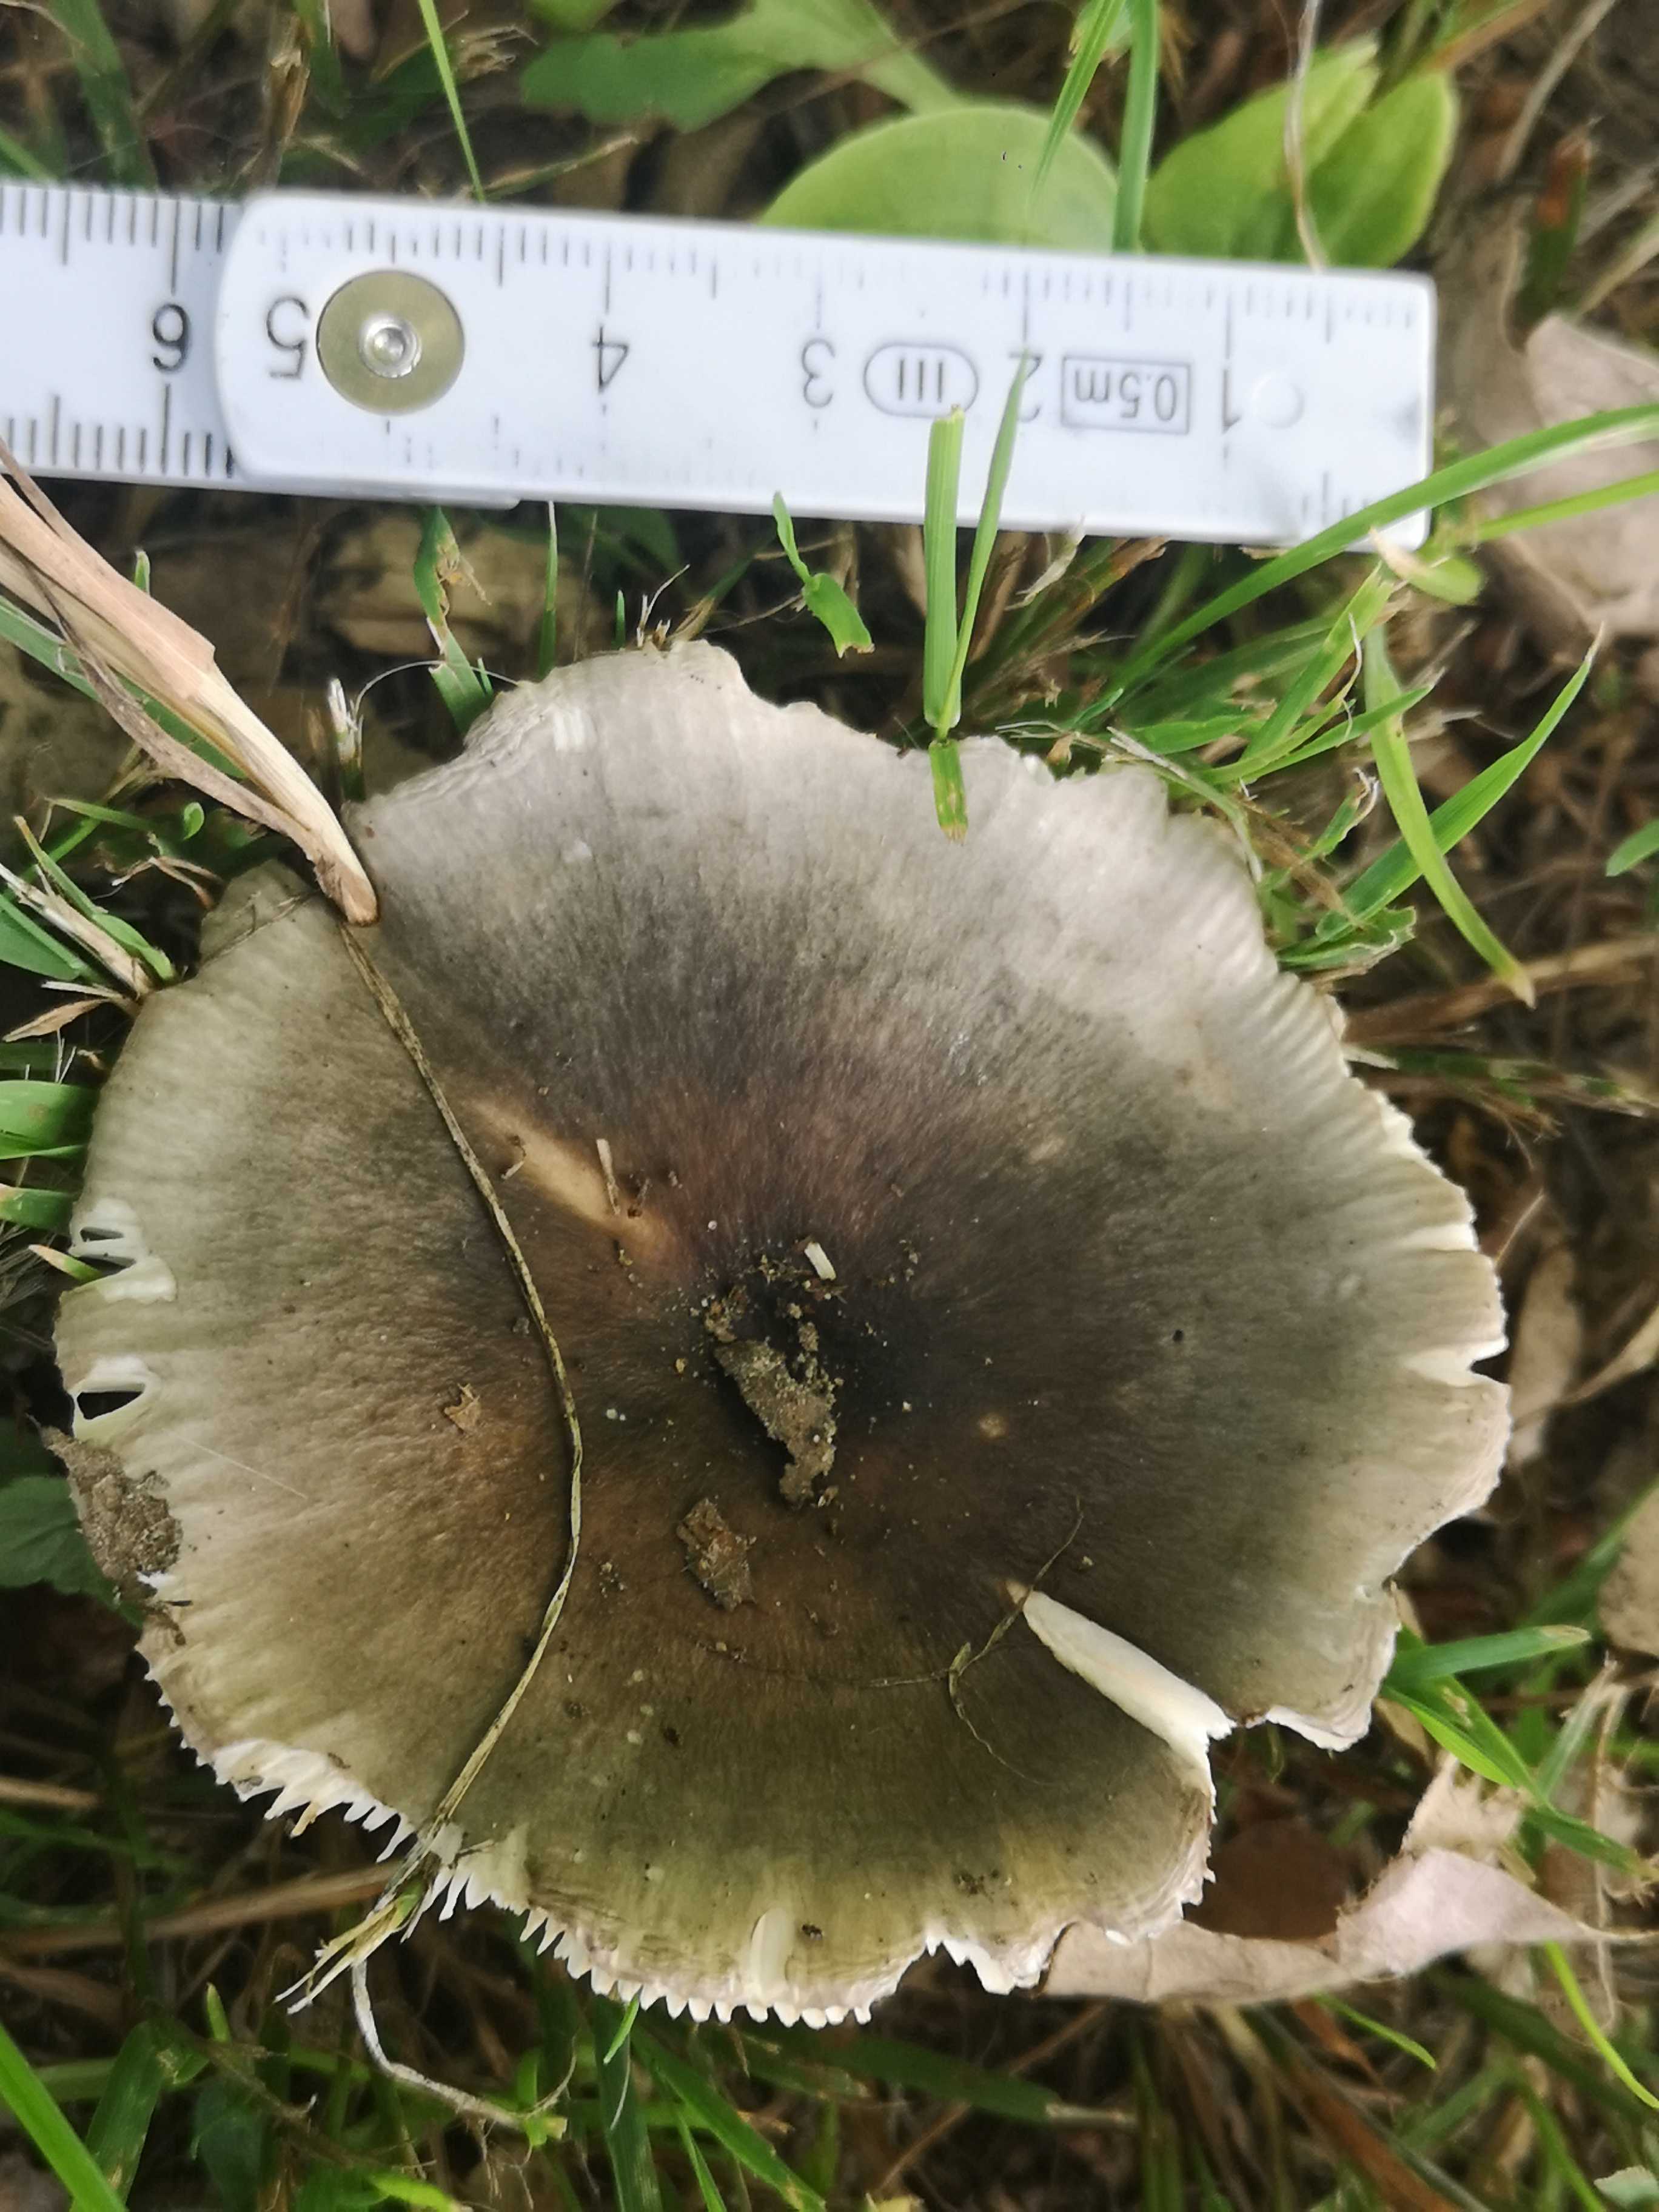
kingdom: Fungi
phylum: Basidiomycota
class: Agaricomycetes
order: Russulales
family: Russulaceae
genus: Russula
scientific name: Russula
